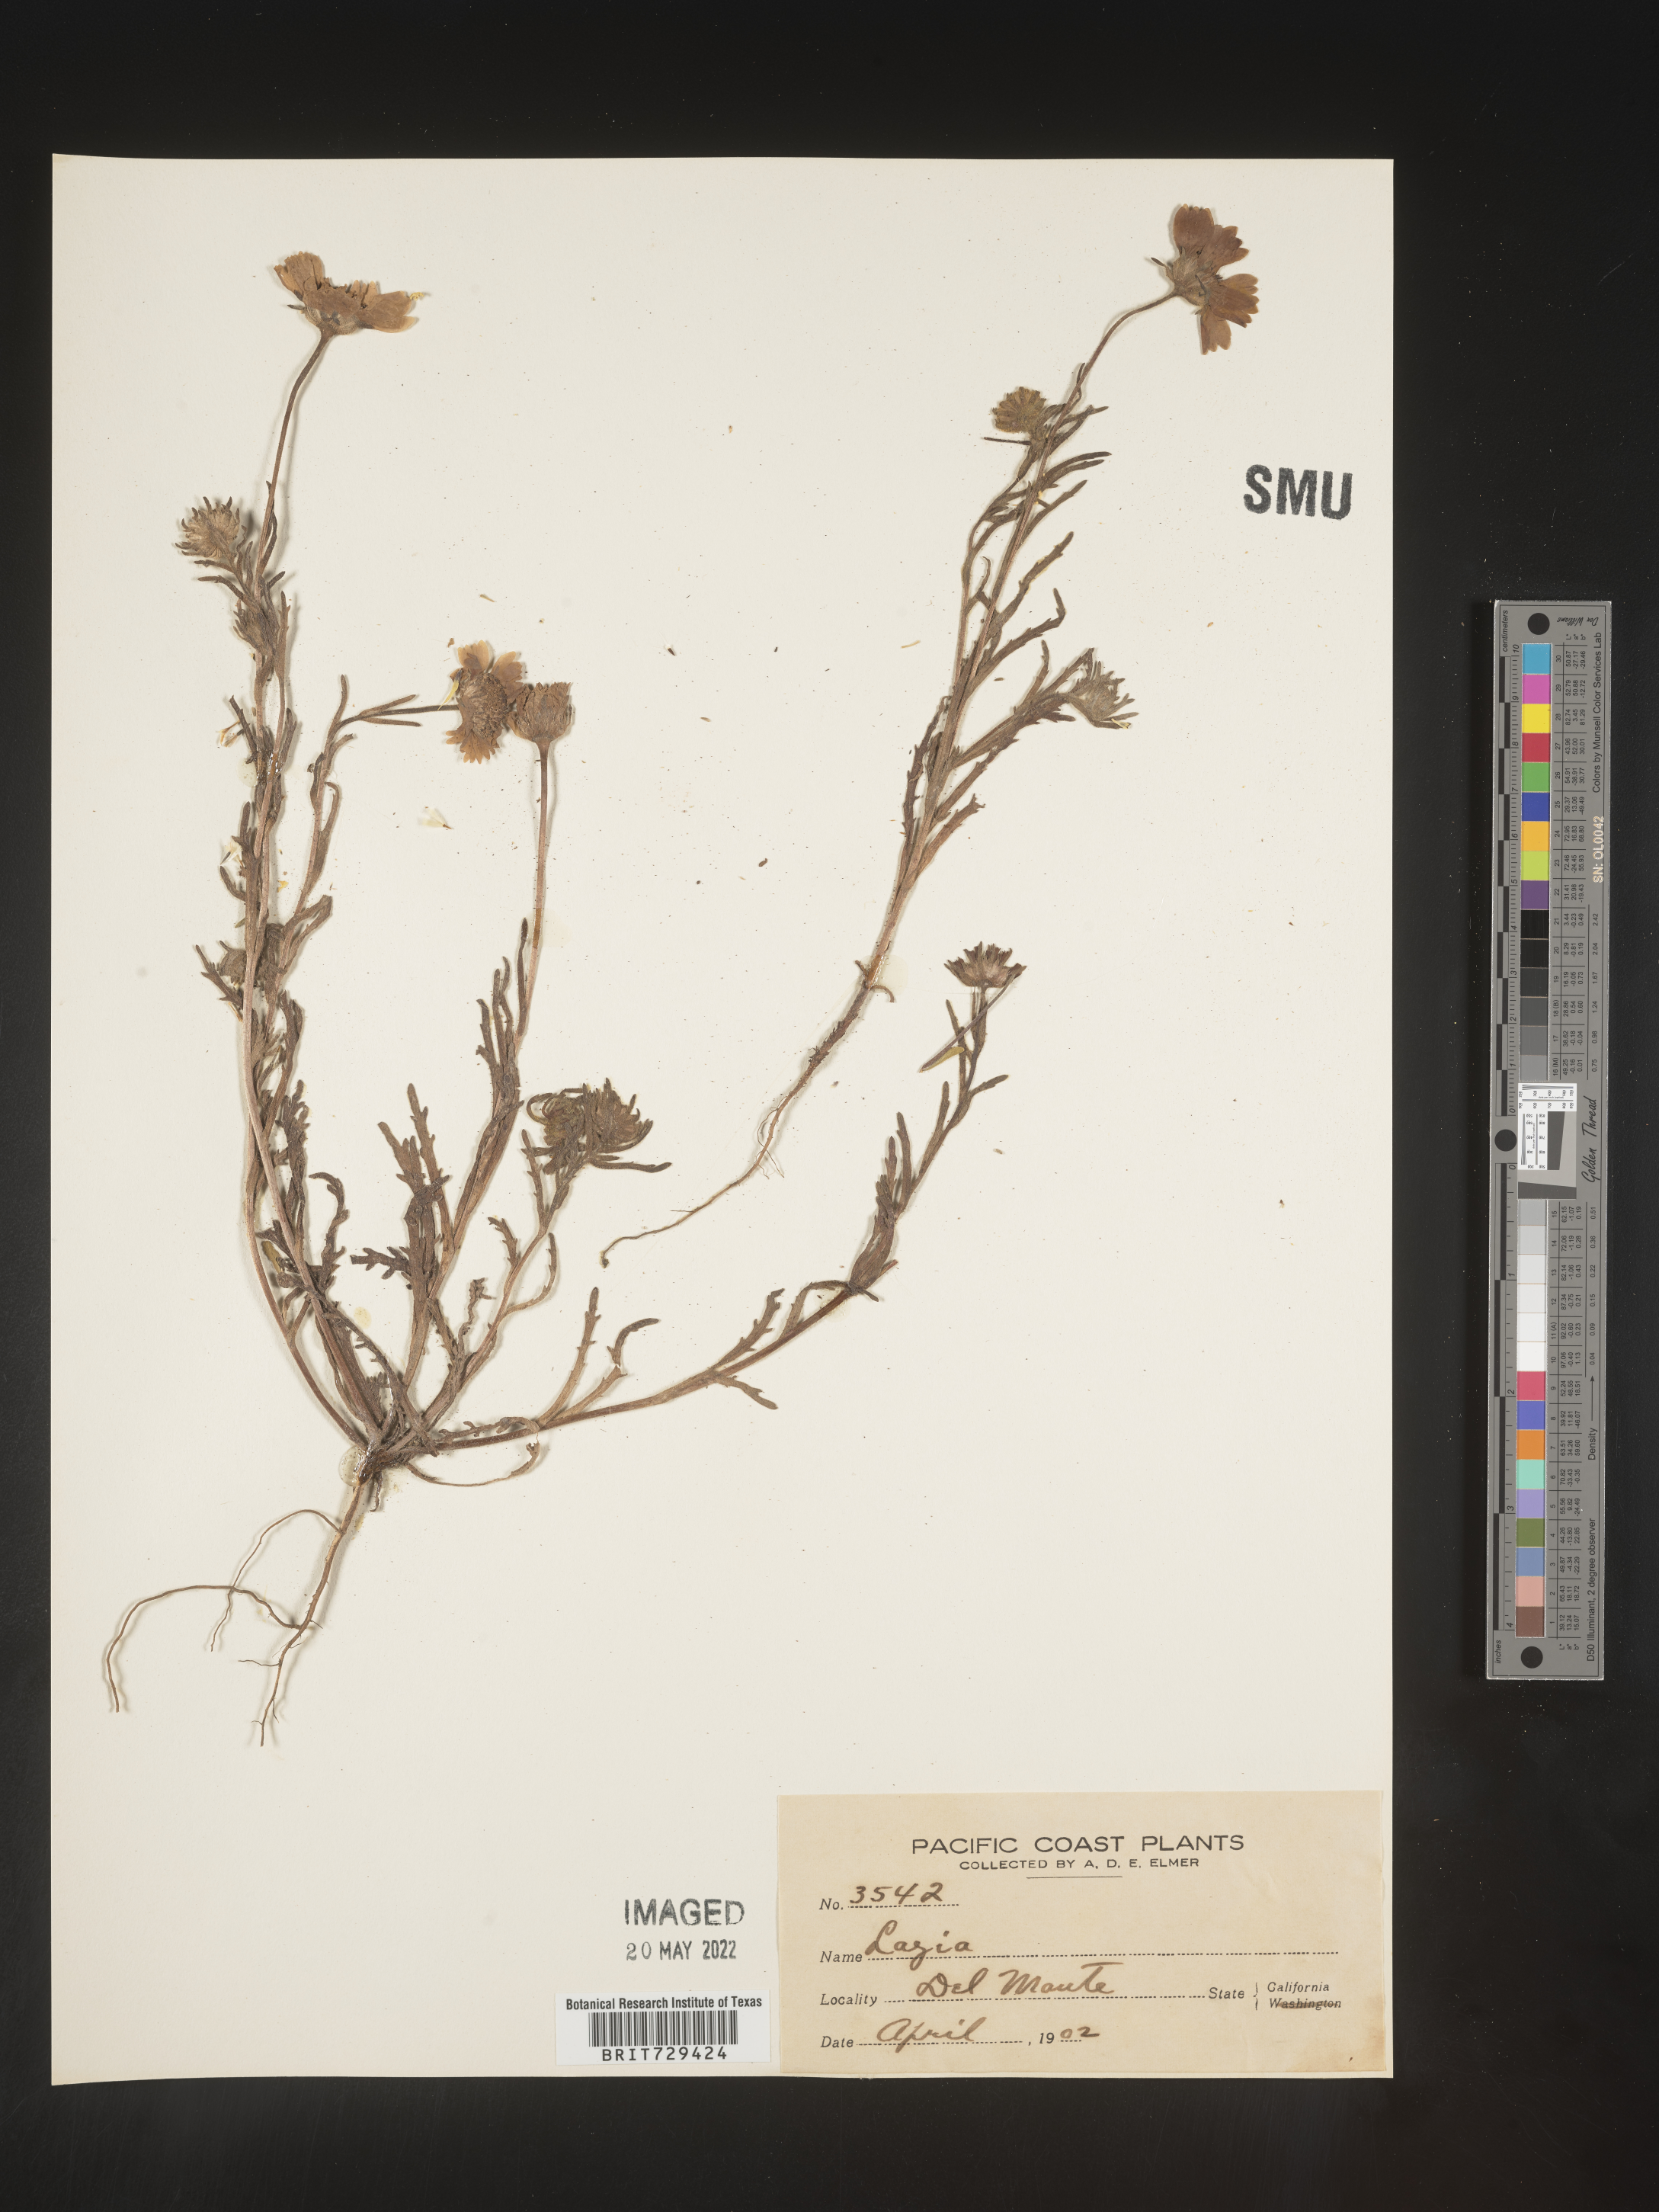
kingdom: Plantae
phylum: Tracheophyta
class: Magnoliopsida
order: Asterales
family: Asteraceae
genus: Layia
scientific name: Layia
